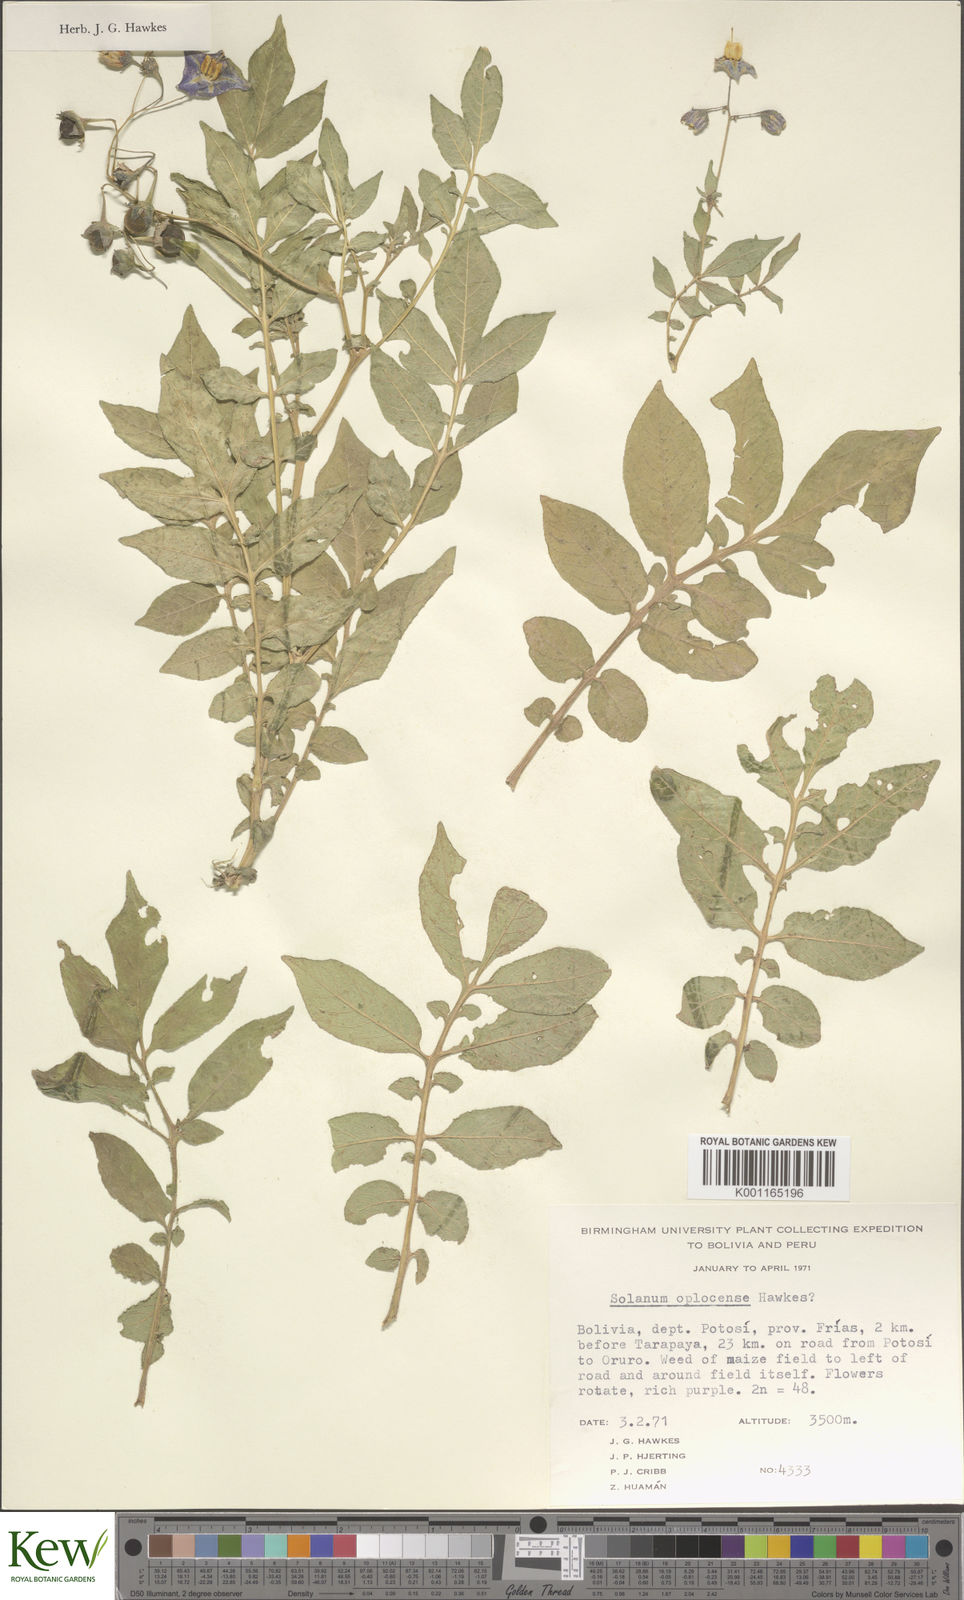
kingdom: Plantae
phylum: Tracheophyta
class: Magnoliopsida
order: Solanales
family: Solanaceae
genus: Solanum
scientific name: Solanum brevicaule
